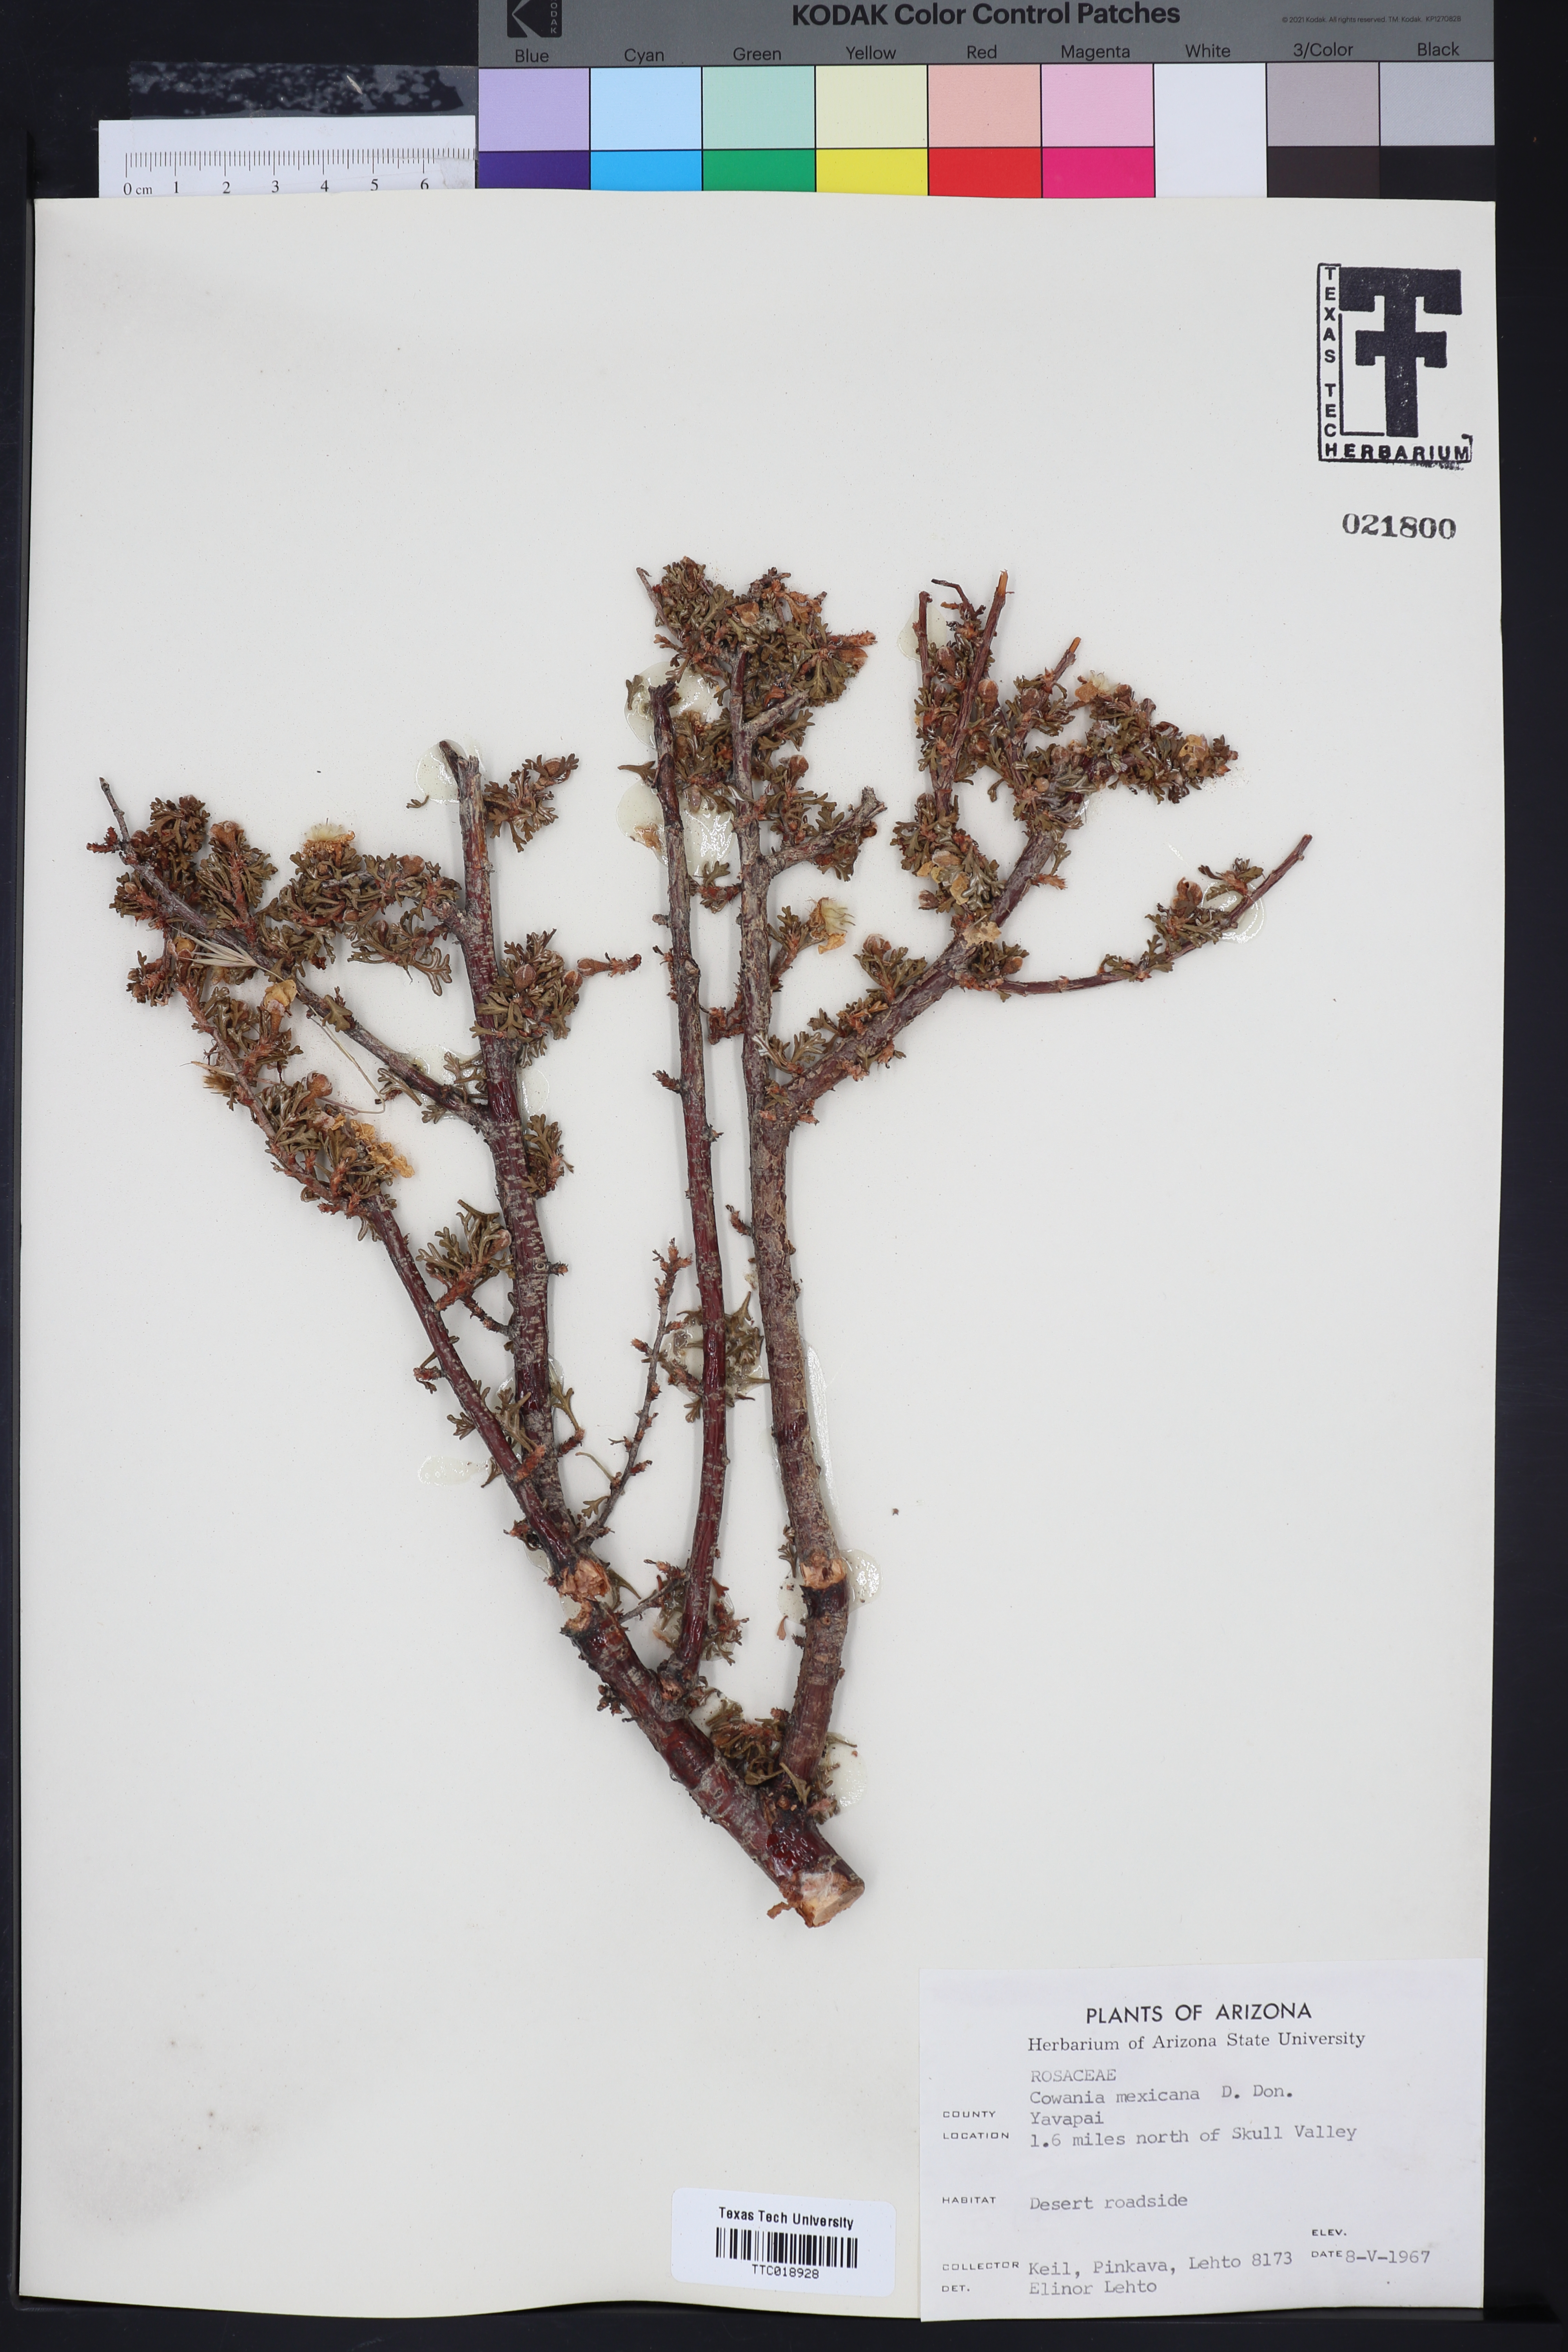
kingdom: Plantae
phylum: Tracheophyta
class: Magnoliopsida
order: Rosales
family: Rosaceae
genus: Purshia
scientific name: Purshia mexicana
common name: Mexican cliffrose
